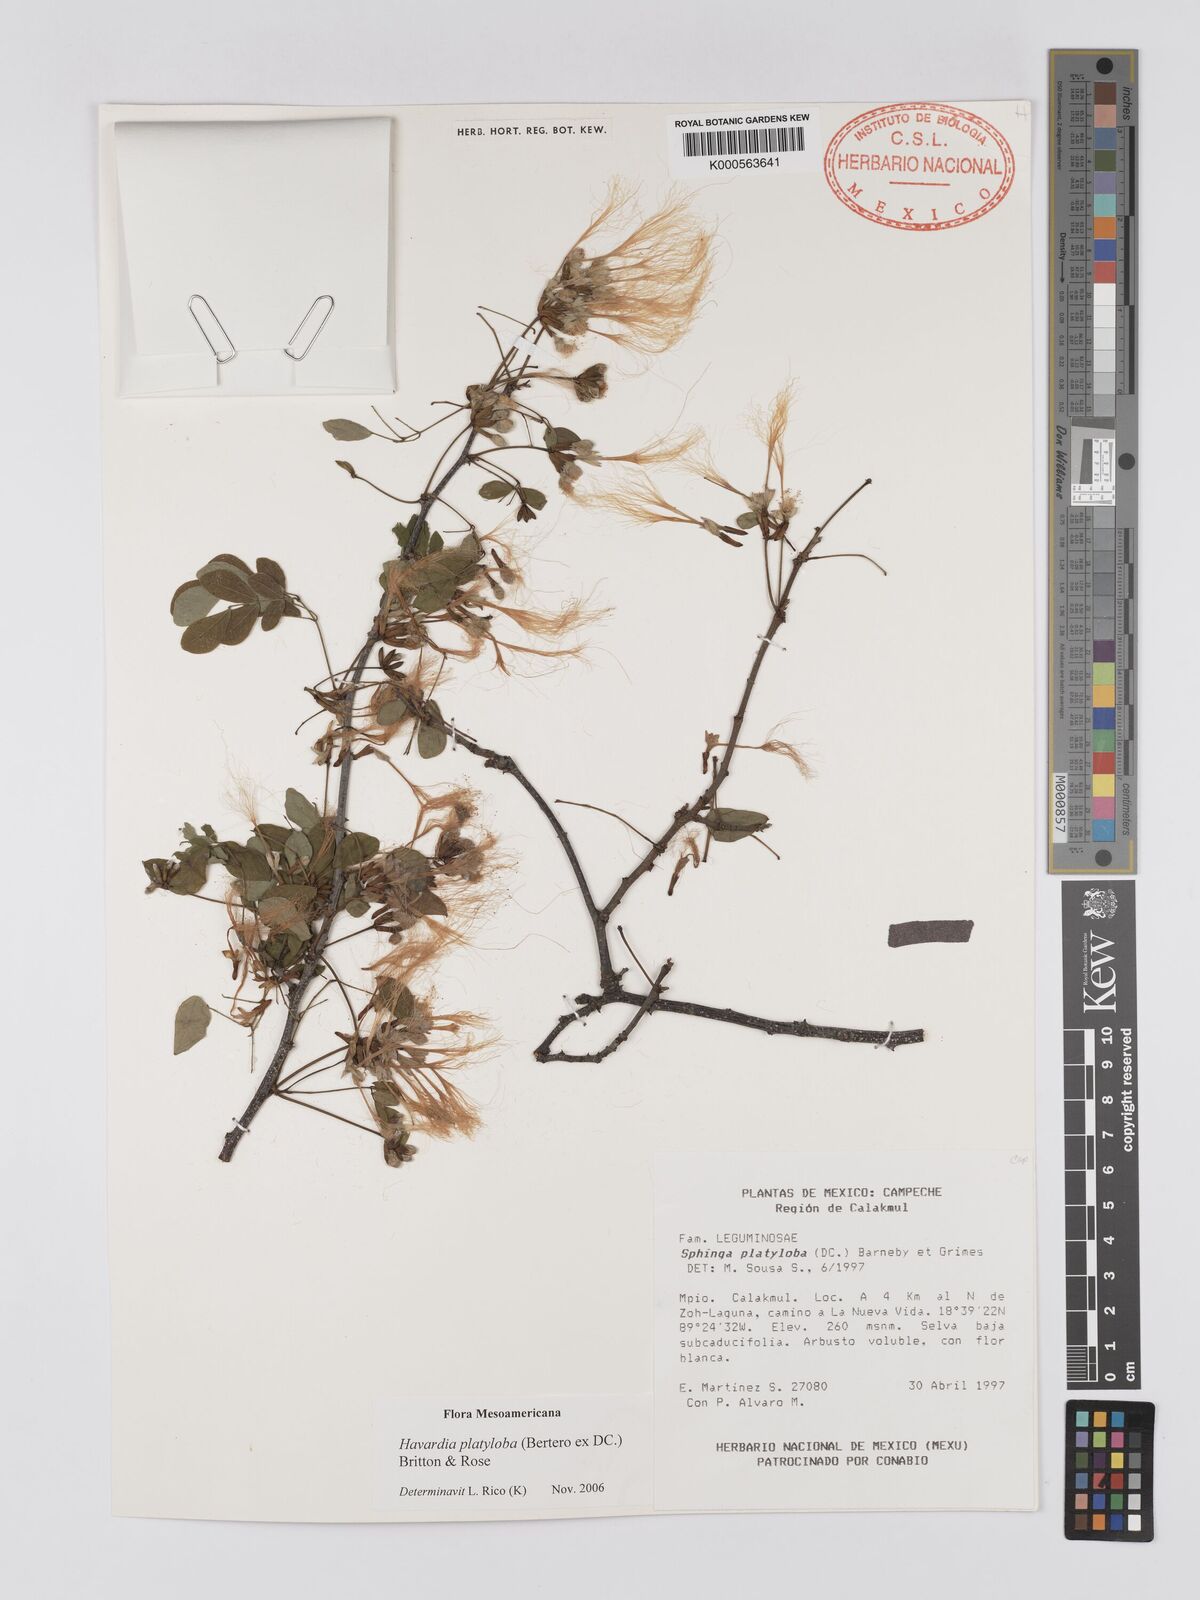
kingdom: Plantae
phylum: Tracheophyta
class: Magnoliopsida
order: Fabales
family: Fabaceae
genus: Havardia
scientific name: Havardia platyloba
